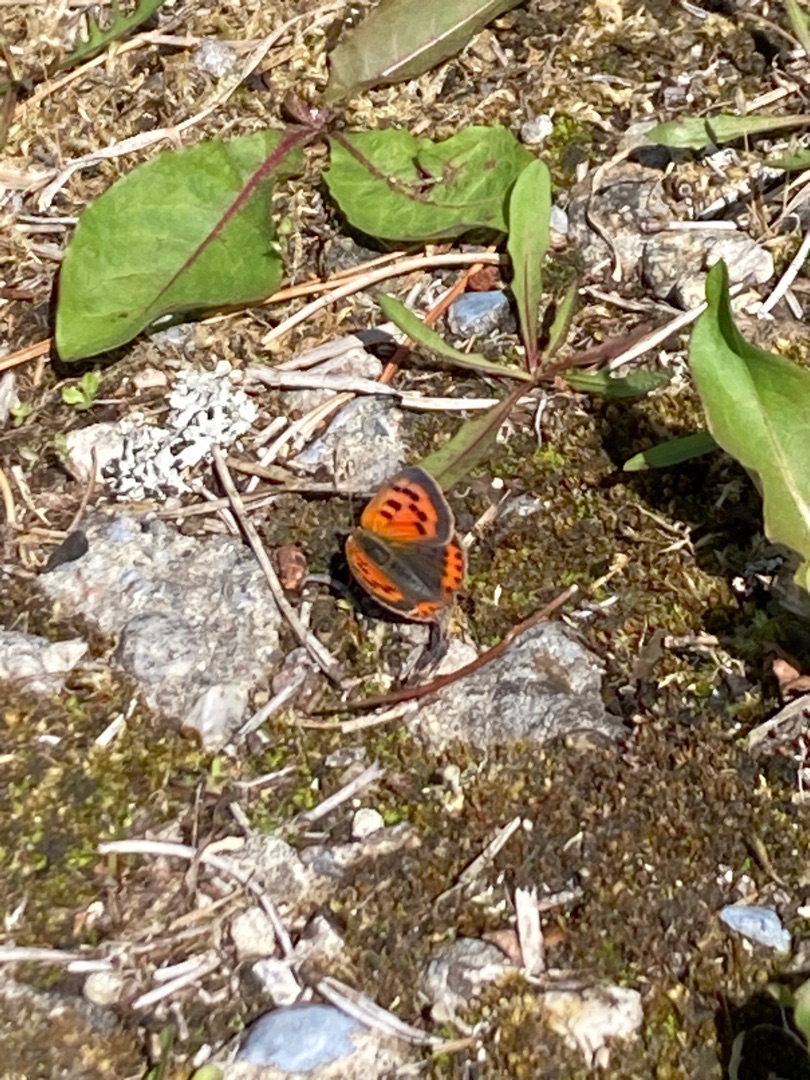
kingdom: Animalia
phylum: Arthropoda
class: Insecta
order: Lepidoptera
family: Lycaenidae
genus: Lycaena
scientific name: Lycaena phlaeas
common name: Lille ildfugl
